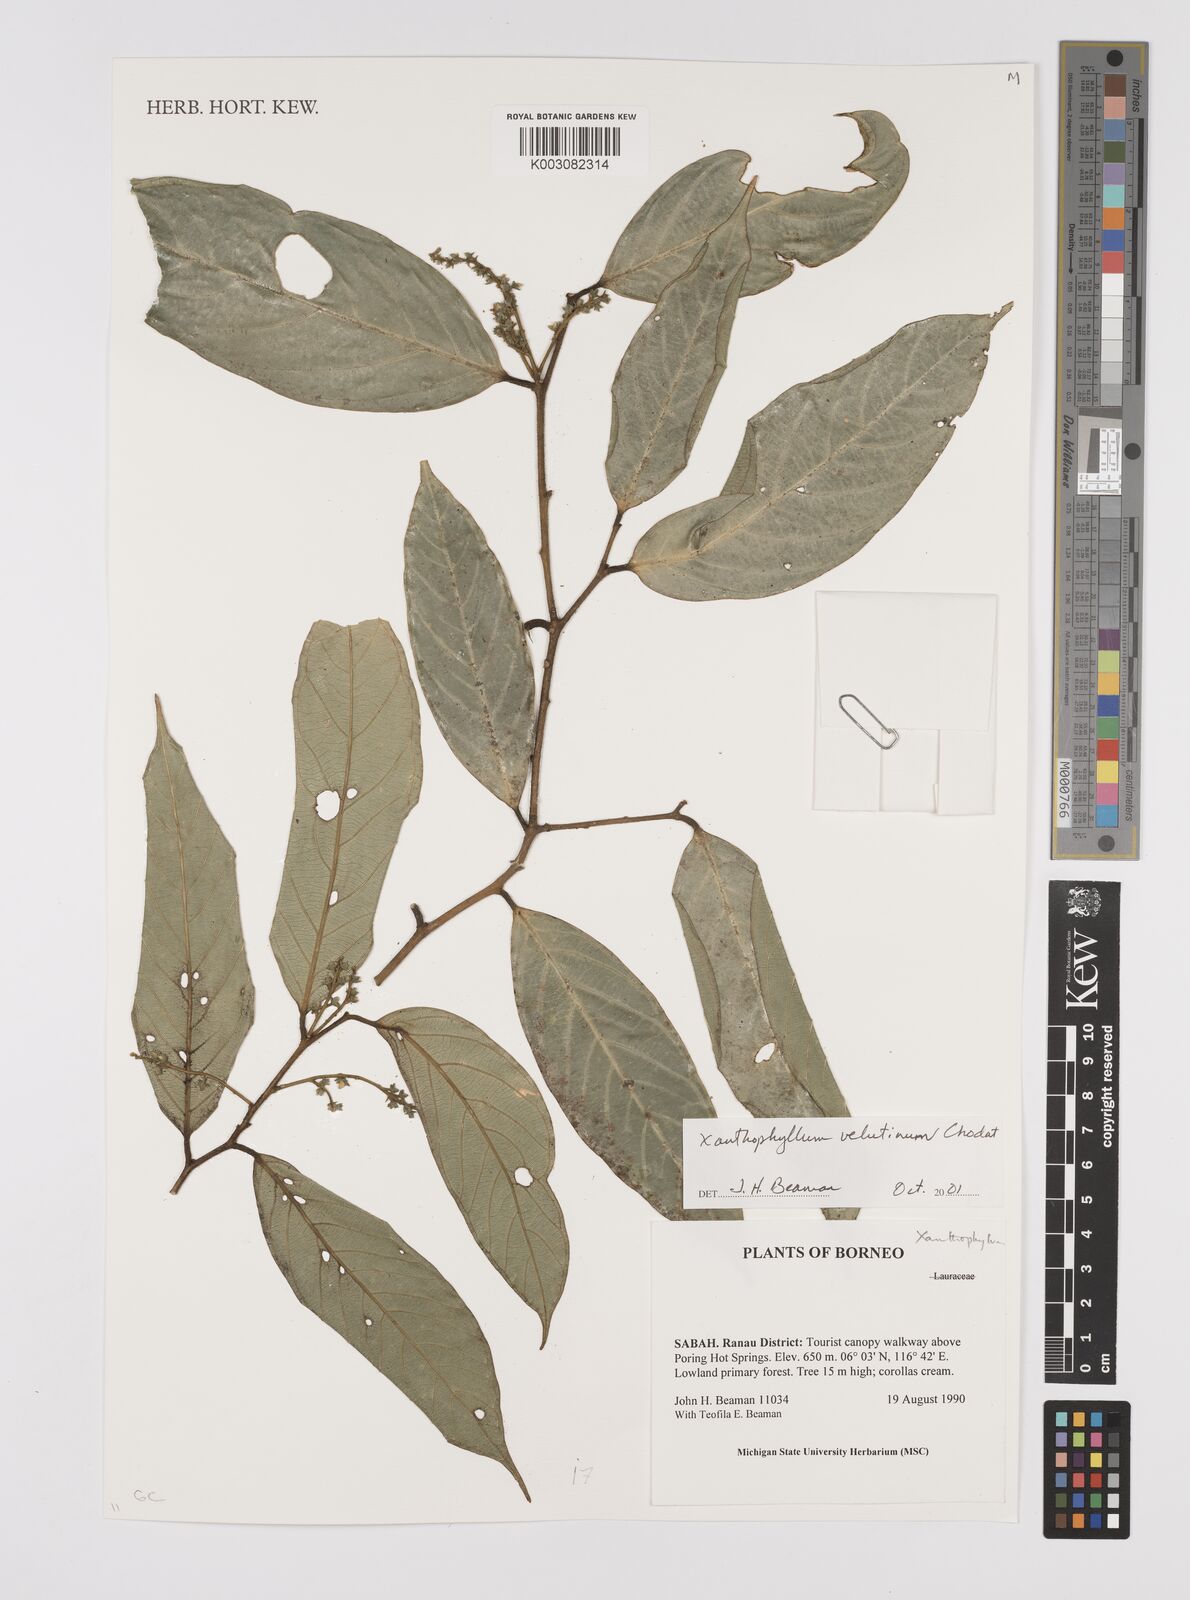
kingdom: Plantae
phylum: Tracheophyta
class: Magnoliopsida
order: Fabales
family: Polygalaceae
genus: Xanthophyllum
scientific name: Xanthophyllum velutinum
